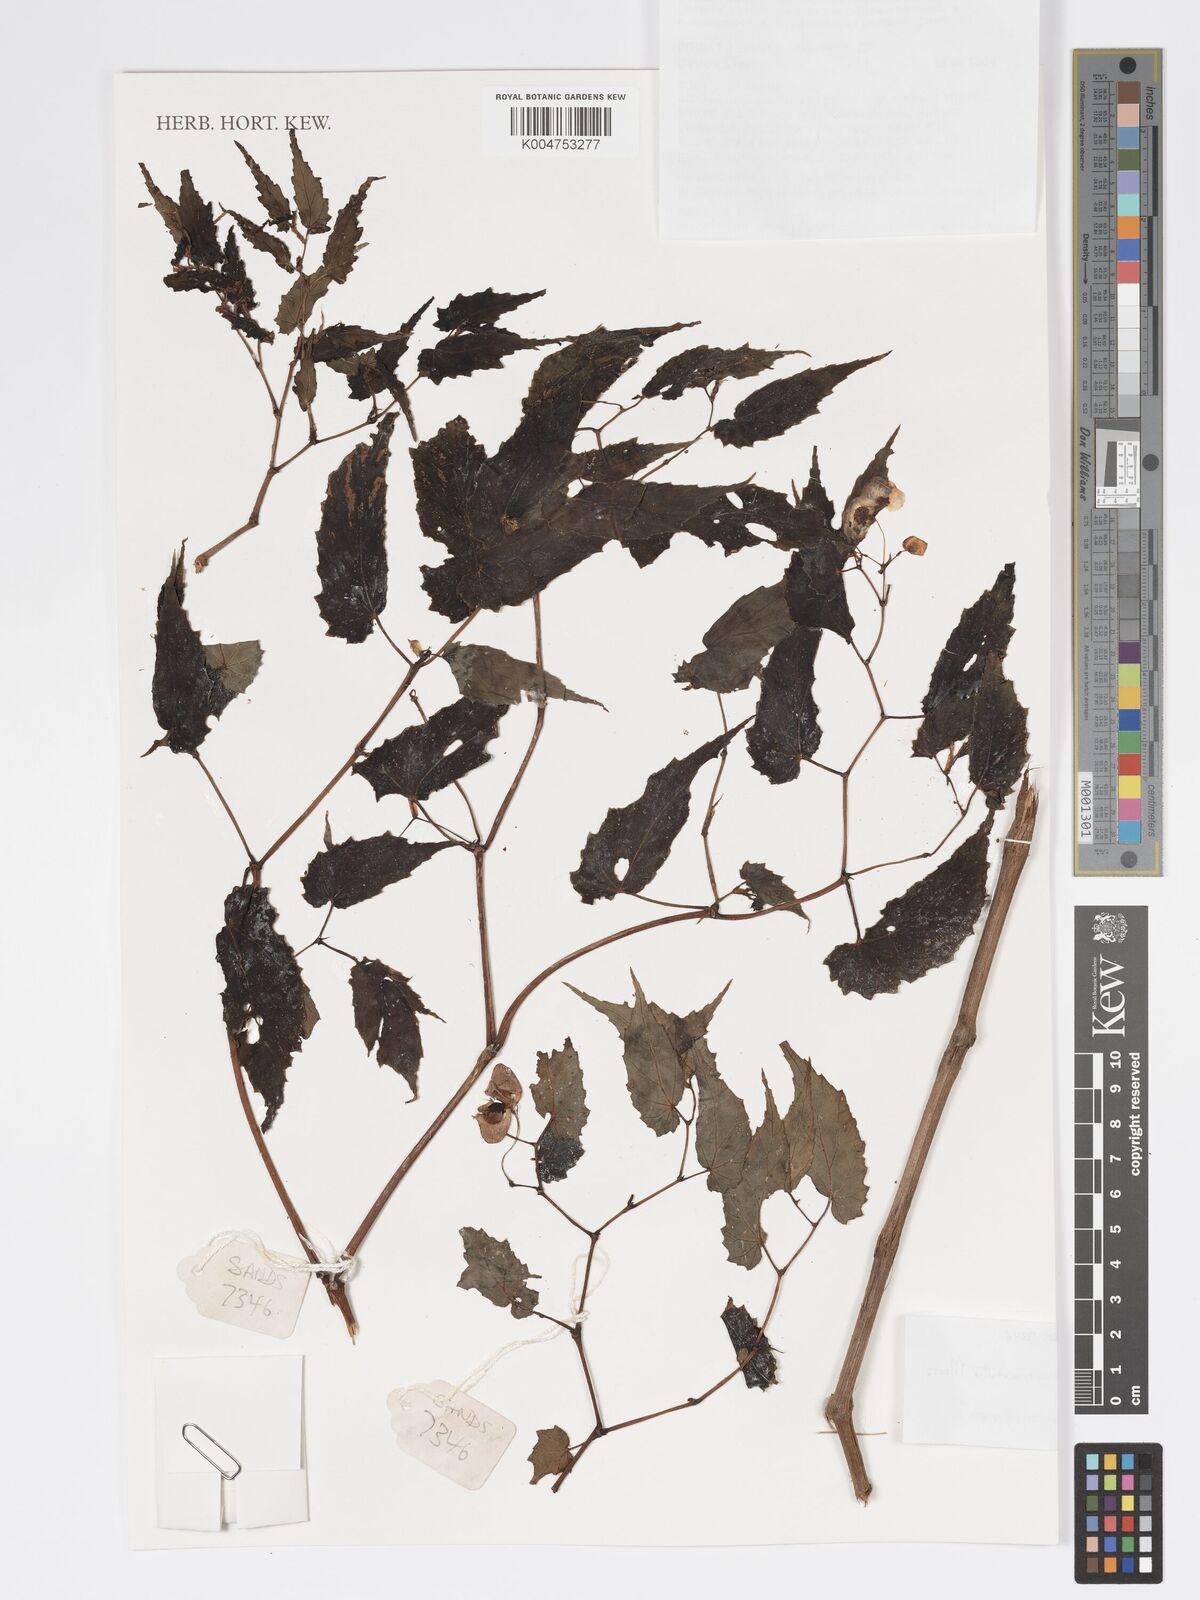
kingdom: Plantae
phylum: Tracheophyta
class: Magnoliopsida
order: Cucurbitales
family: Begoniaceae
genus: Begonia
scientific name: Begonia merrittii
